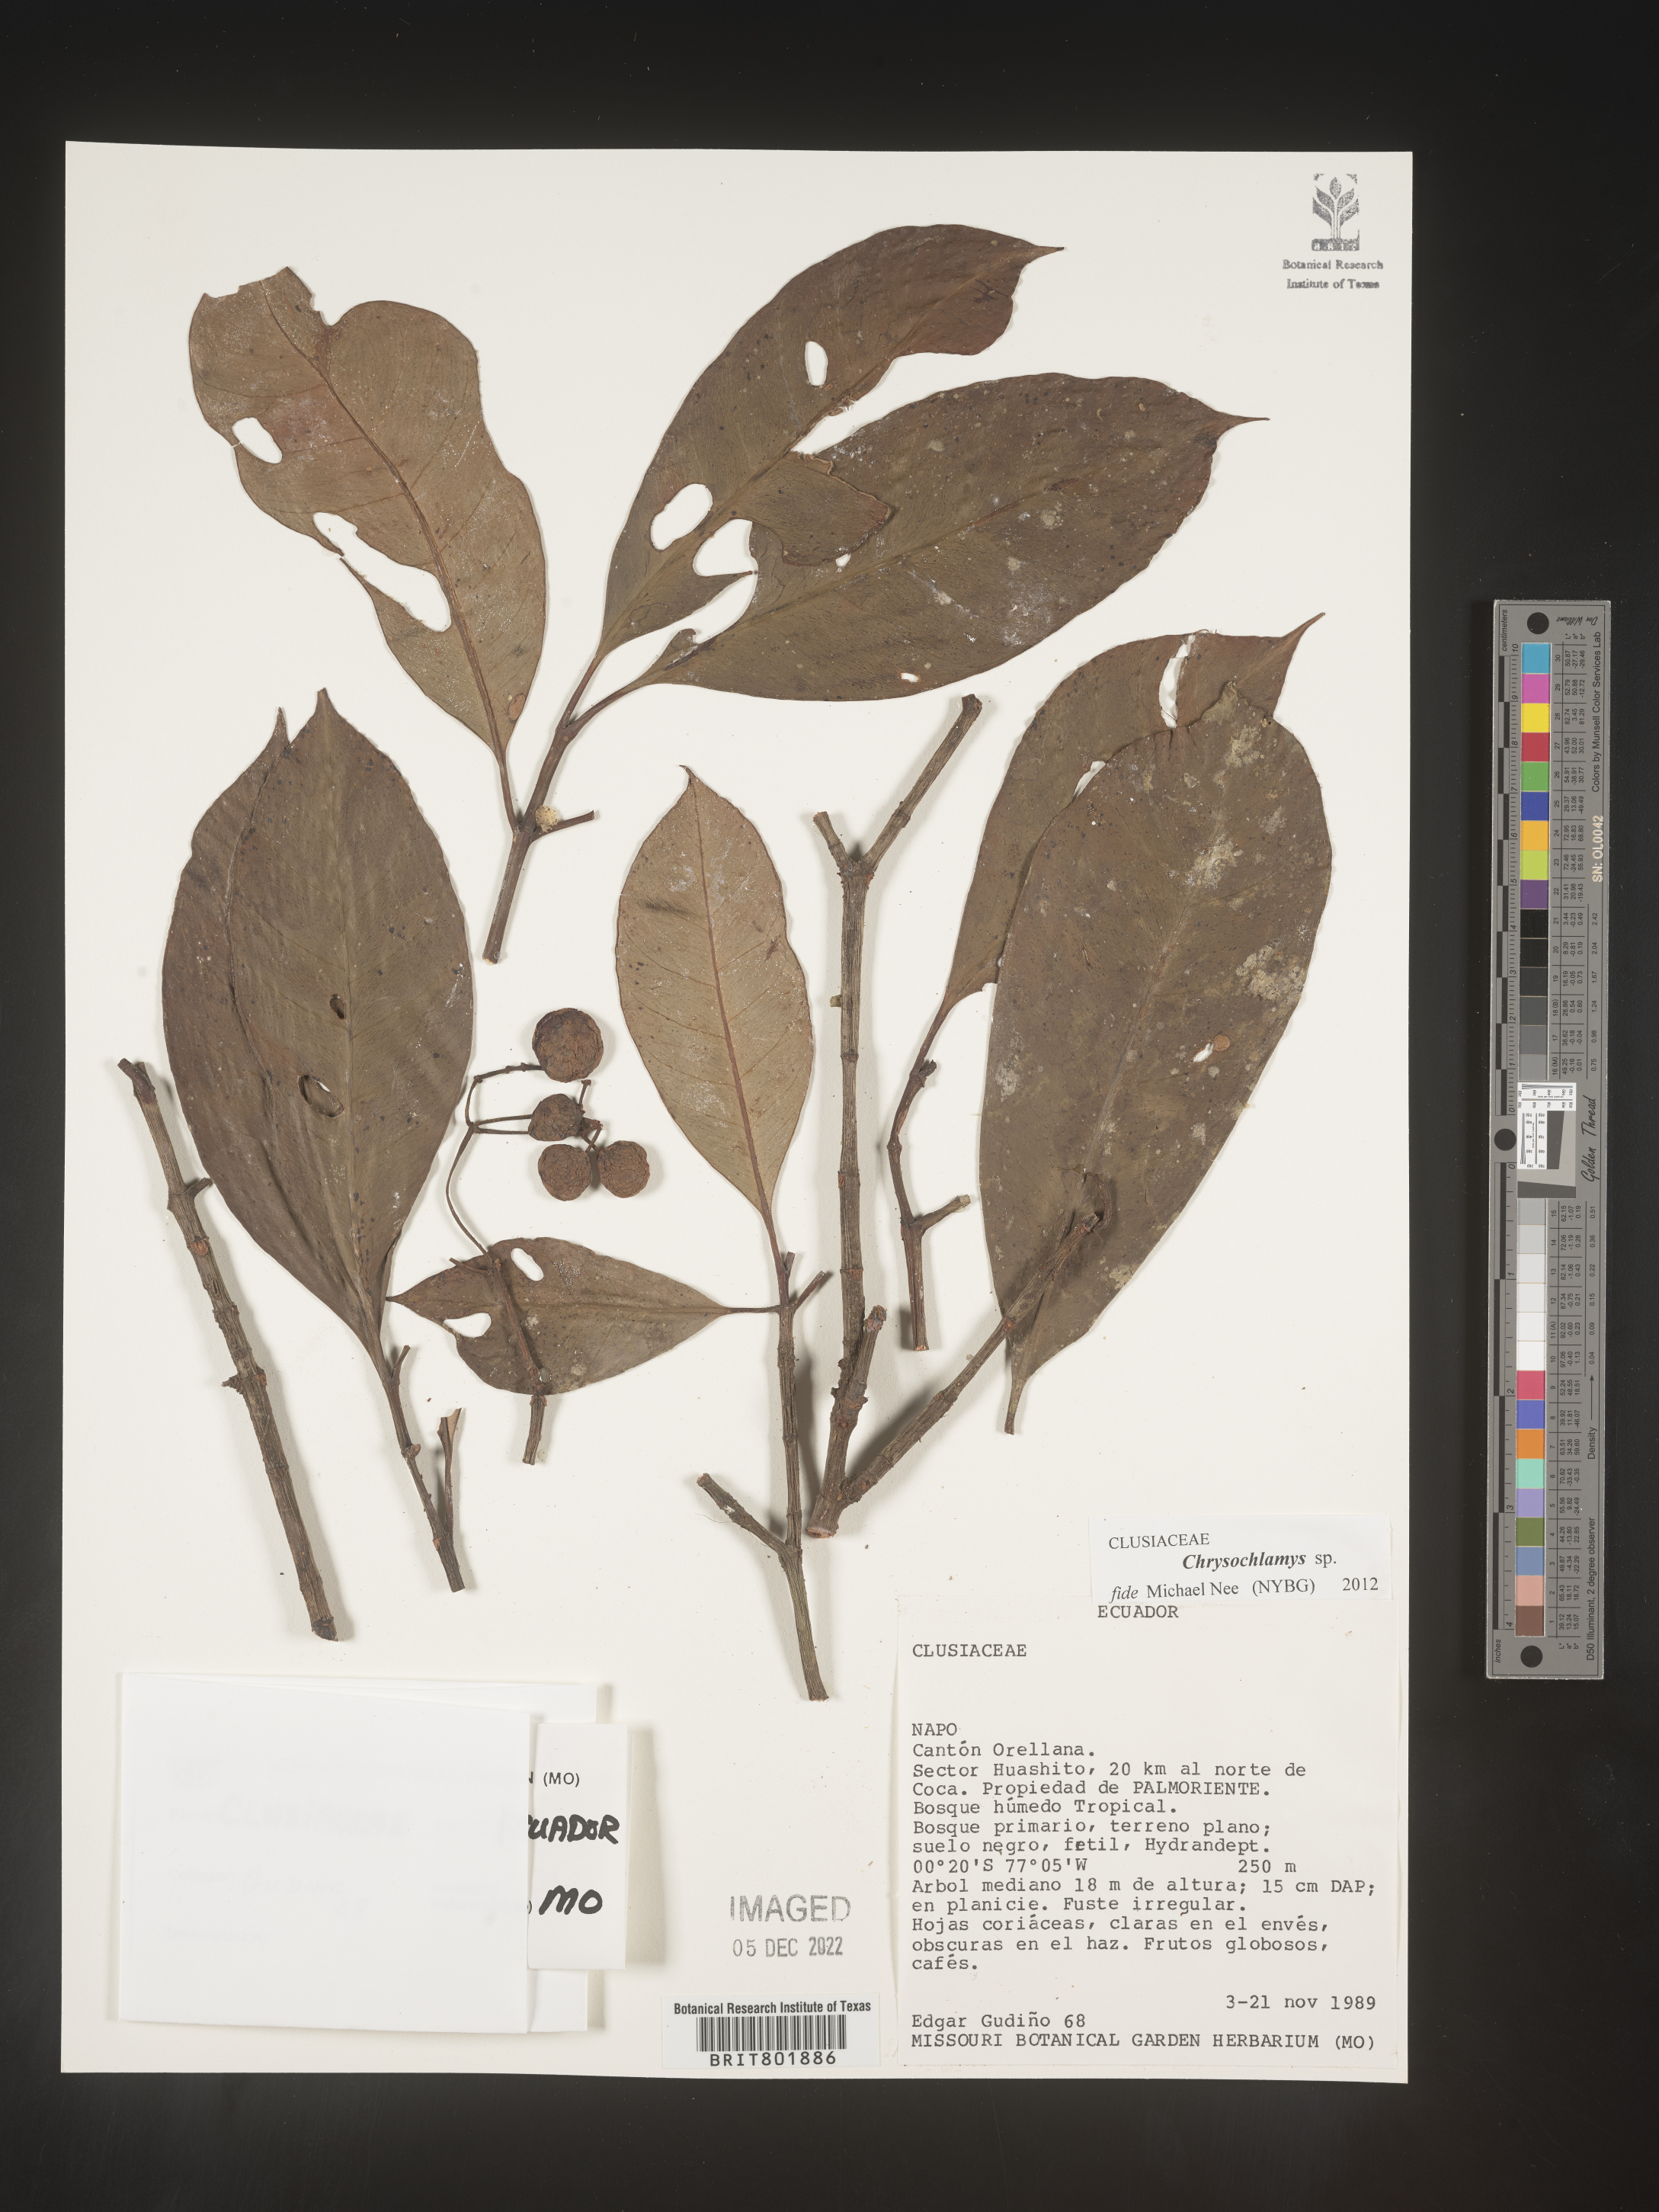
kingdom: Plantae
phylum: Tracheophyta
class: Magnoliopsida
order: Malpighiales
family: Clusiaceae
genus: Chrysochlamys
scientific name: Chrysochlamys
